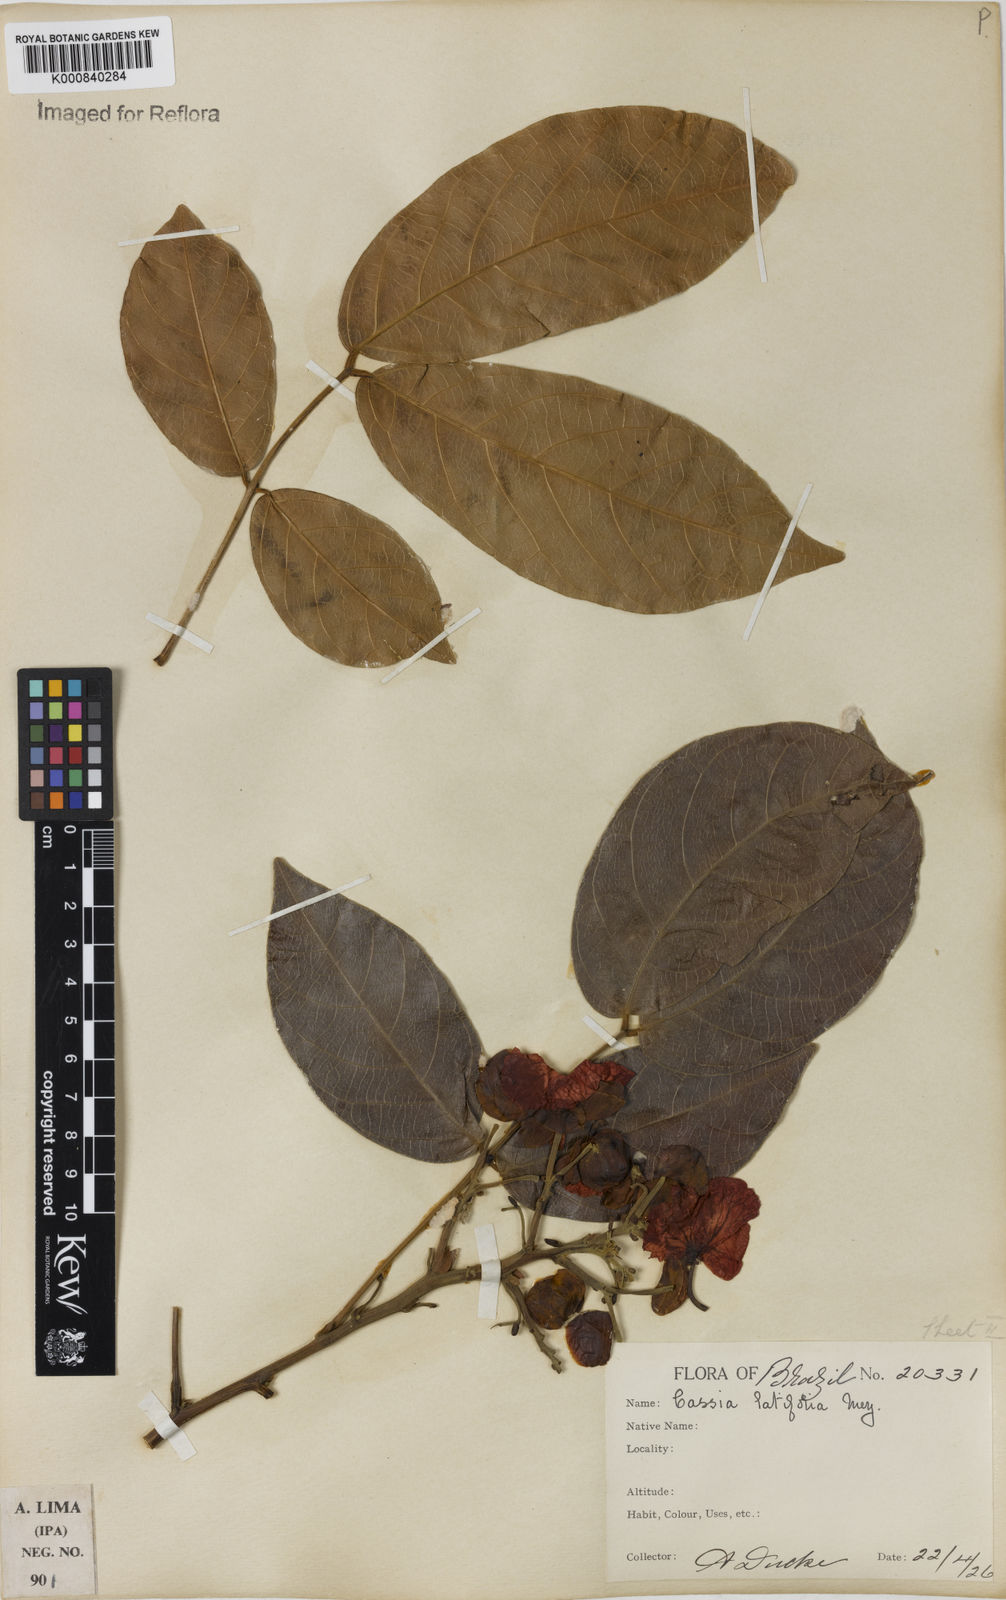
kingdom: Plantae
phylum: Tracheophyta
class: Magnoliopsida
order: Fabales
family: Fabaceae
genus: Senna
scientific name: Senna latifolia
